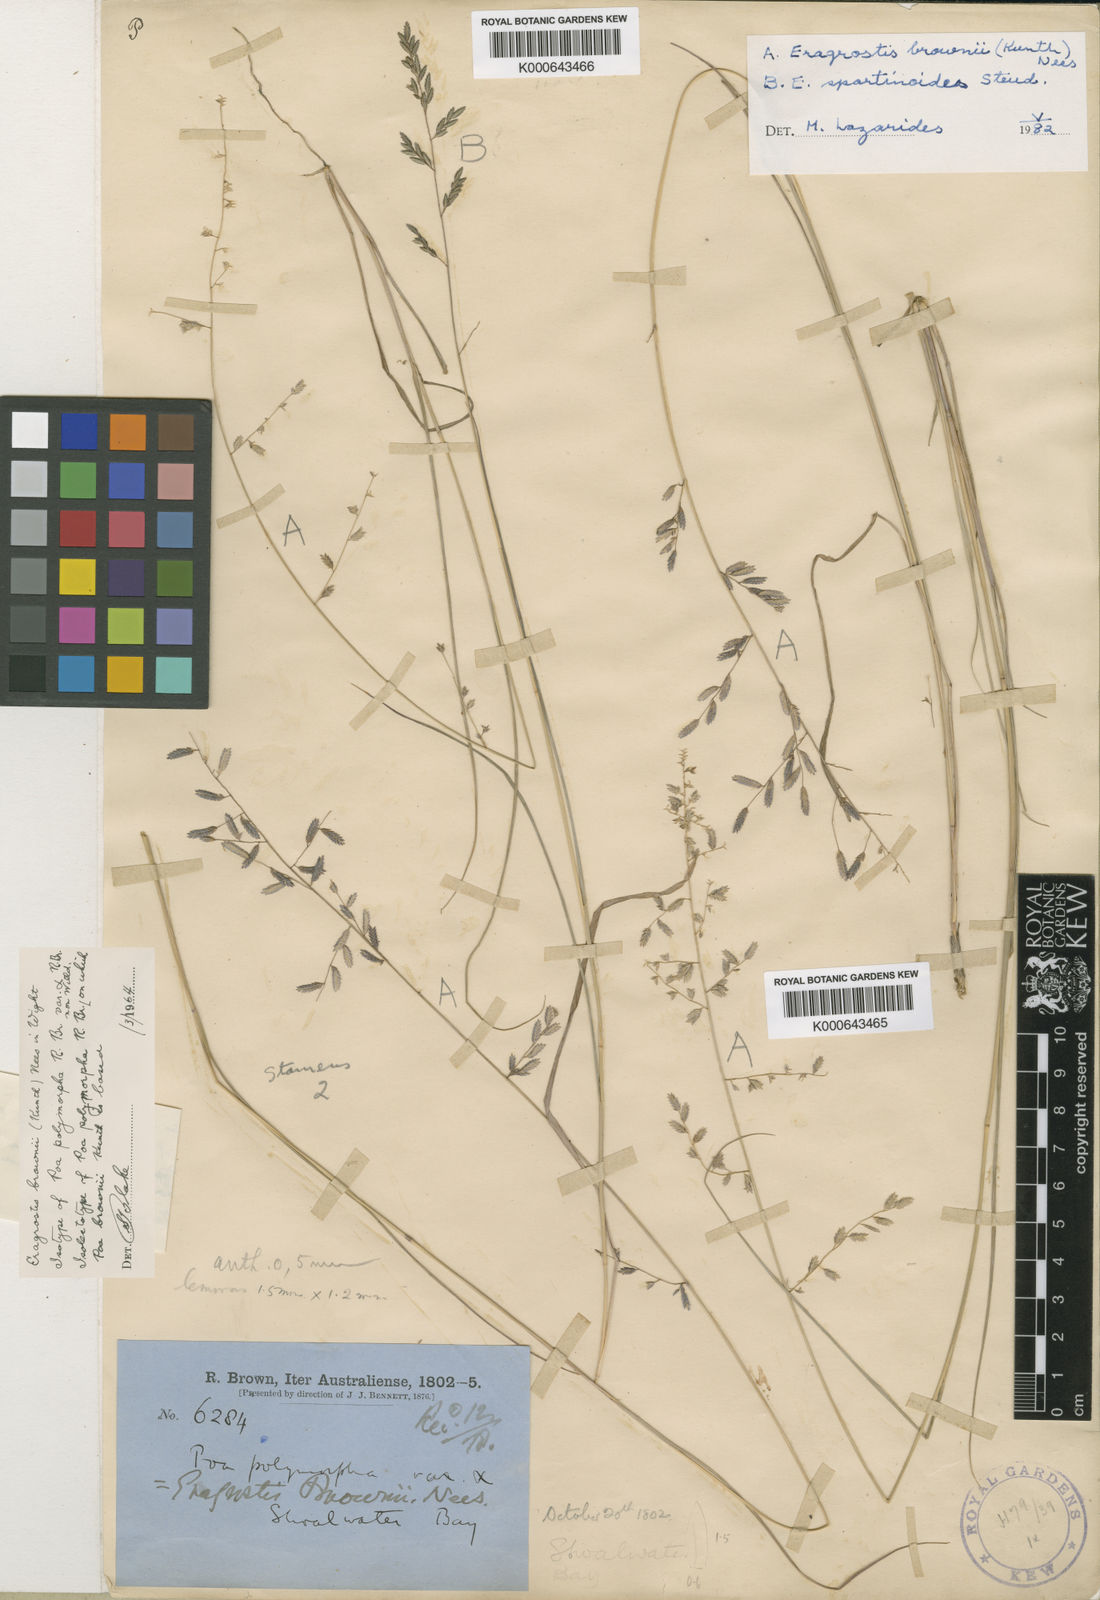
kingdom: Plantae
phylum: Tracheophyta
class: Liliopsida
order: Poales
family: Poaceae
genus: Eragrostis
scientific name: Eragrostis brownii
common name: Lovegrass
